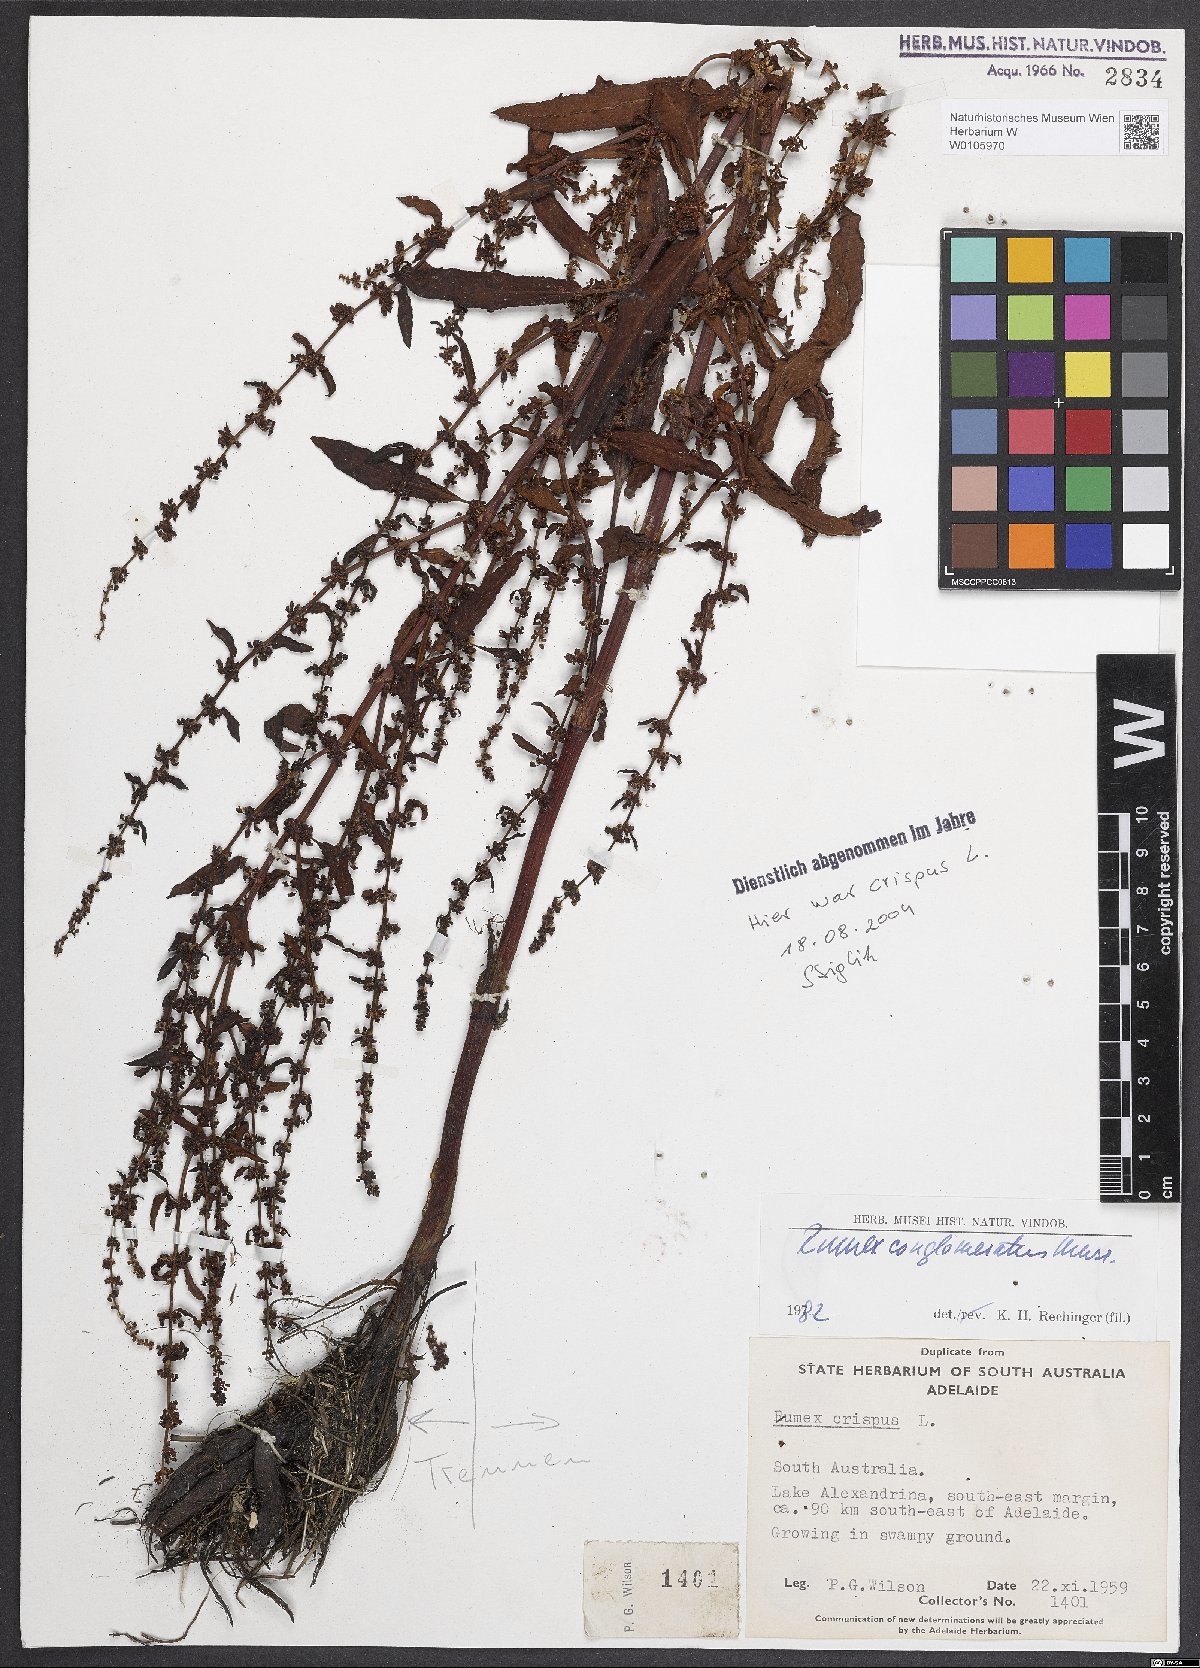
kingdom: Plantae
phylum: Tracheophyta
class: Magnoliopsida
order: Caryophyllales
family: Polygonaceae
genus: Rumex
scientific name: Rumex conglomeratus
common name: Clustered dock
